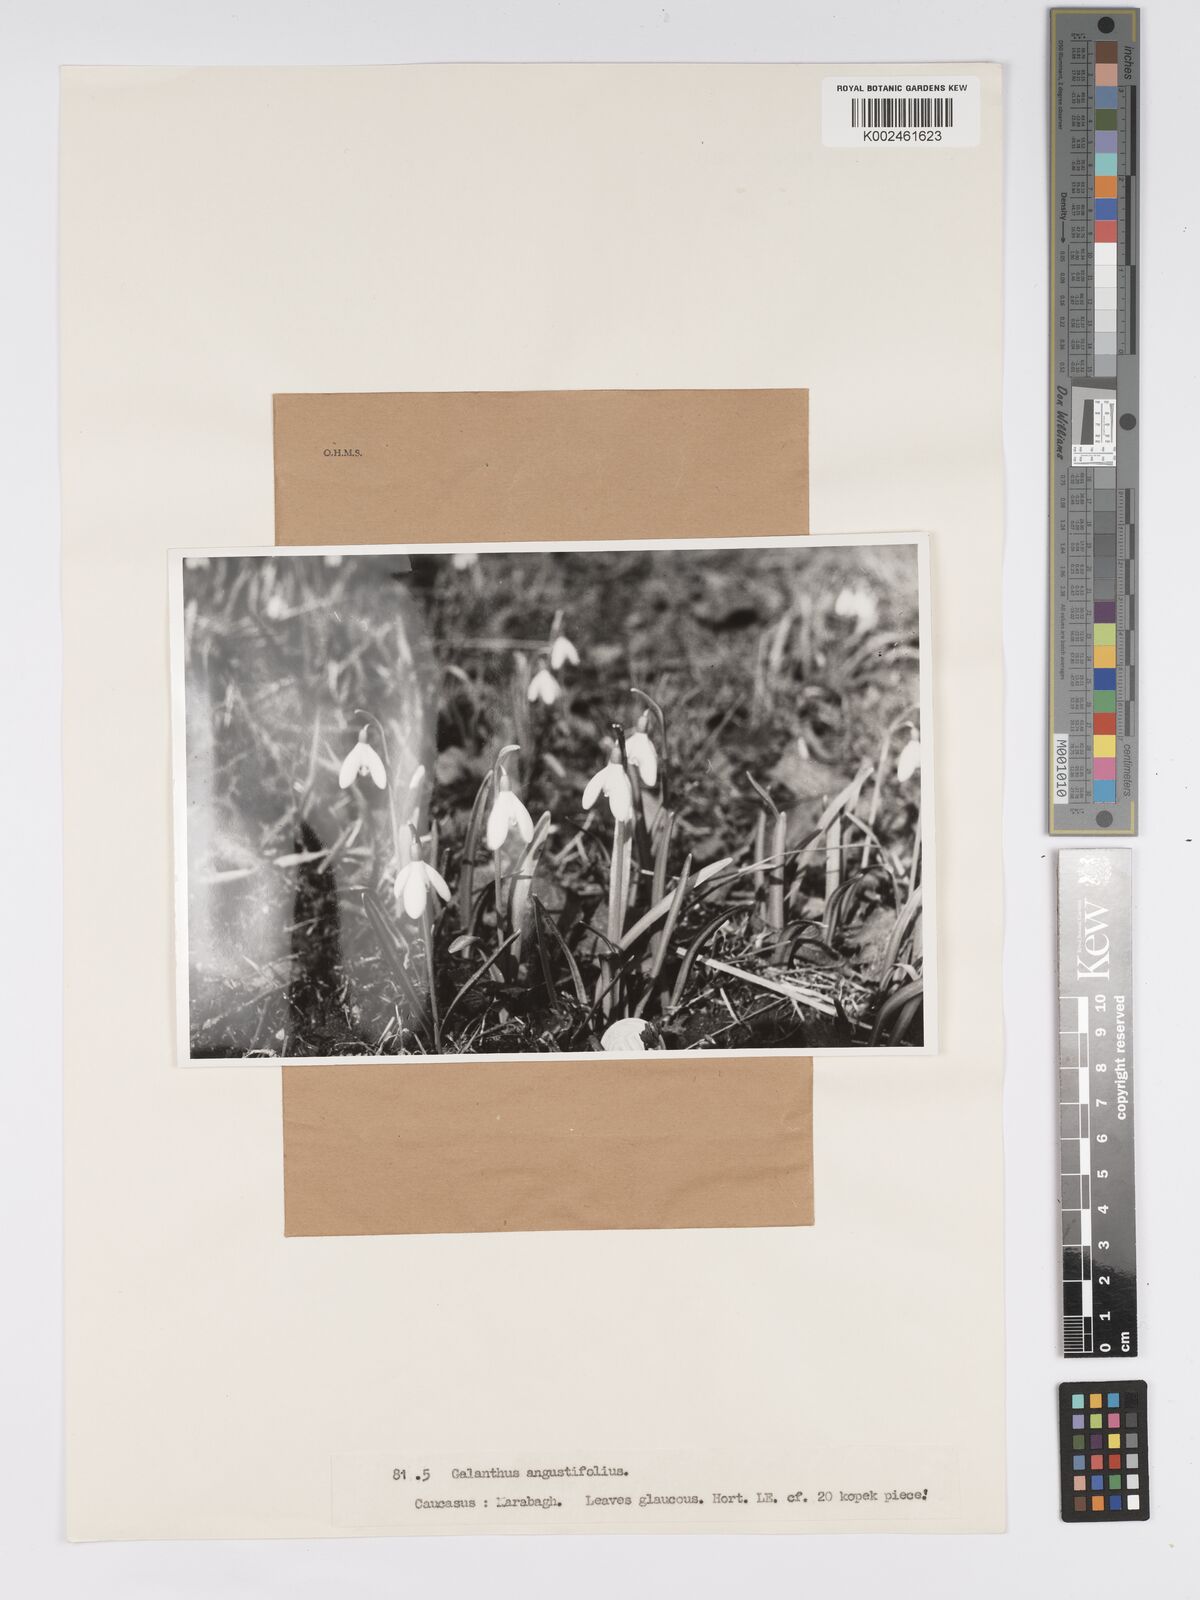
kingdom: Plantae
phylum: Tracheophyta
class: Liliopsida
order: Asparagales
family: Amaryllidaceae
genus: Galanthus
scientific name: Galanthus angustifolius
